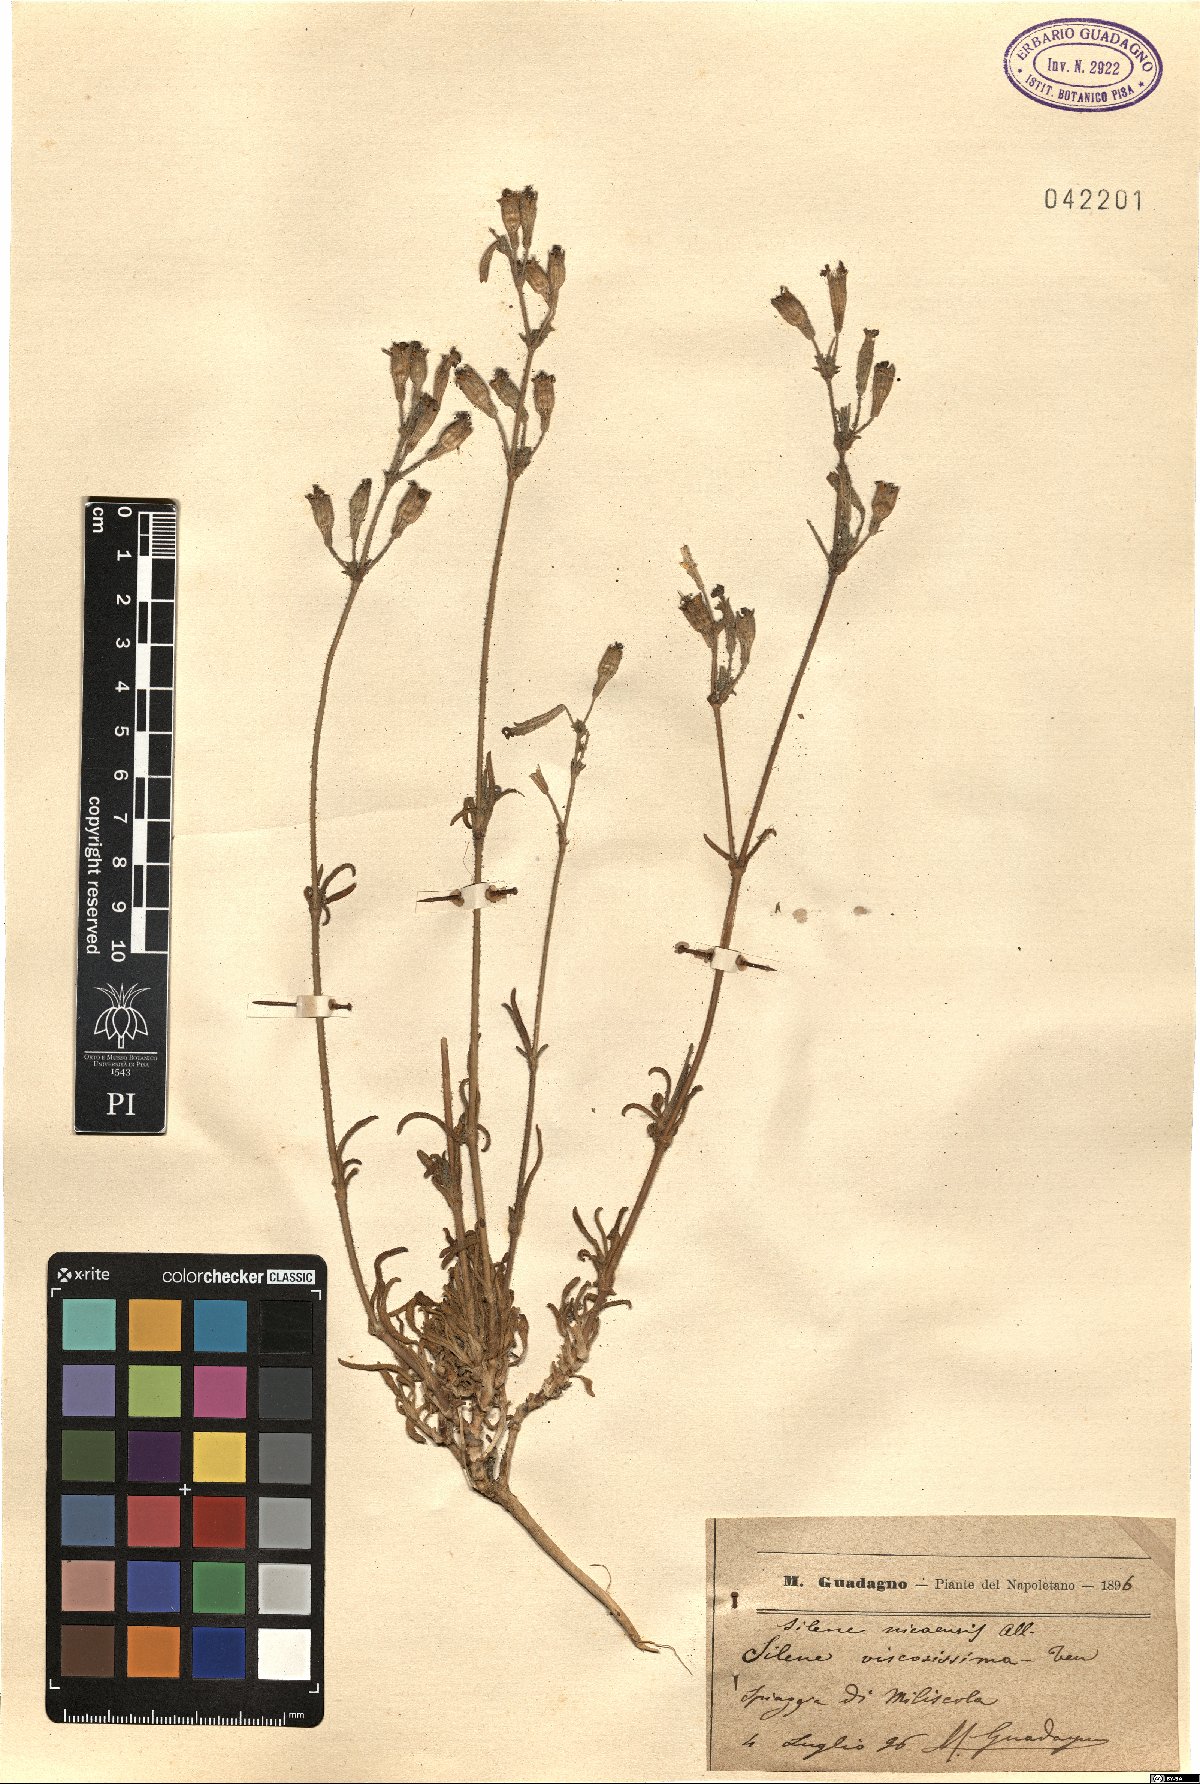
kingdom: Plantae
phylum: Tracheophyta
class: Magnoliopsida
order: Caryophyllales
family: Caryophyllaceae
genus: Silene
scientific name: Silene nicaeensis
